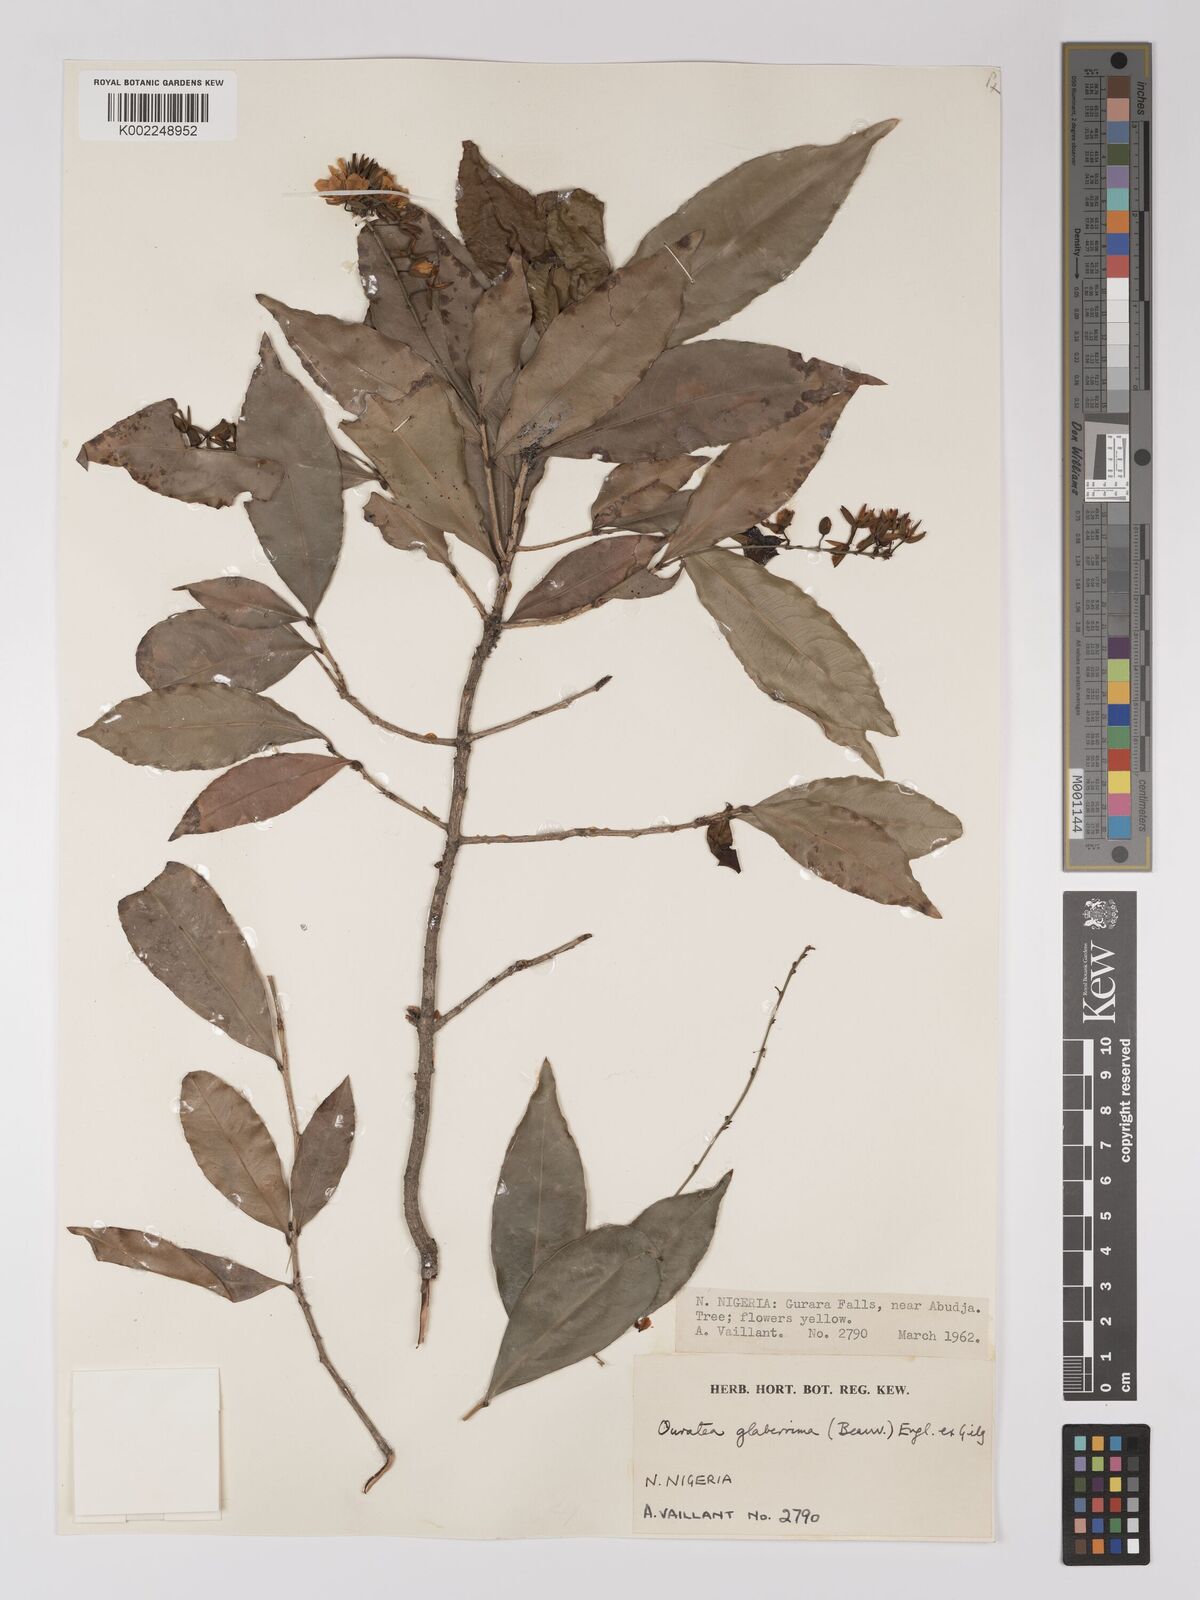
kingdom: Plantae
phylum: Tracheophyta
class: Magnoliopsida
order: Malpighiales
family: Ochnaceae
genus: Campylospermum
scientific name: Campylospermum glaberrimum
